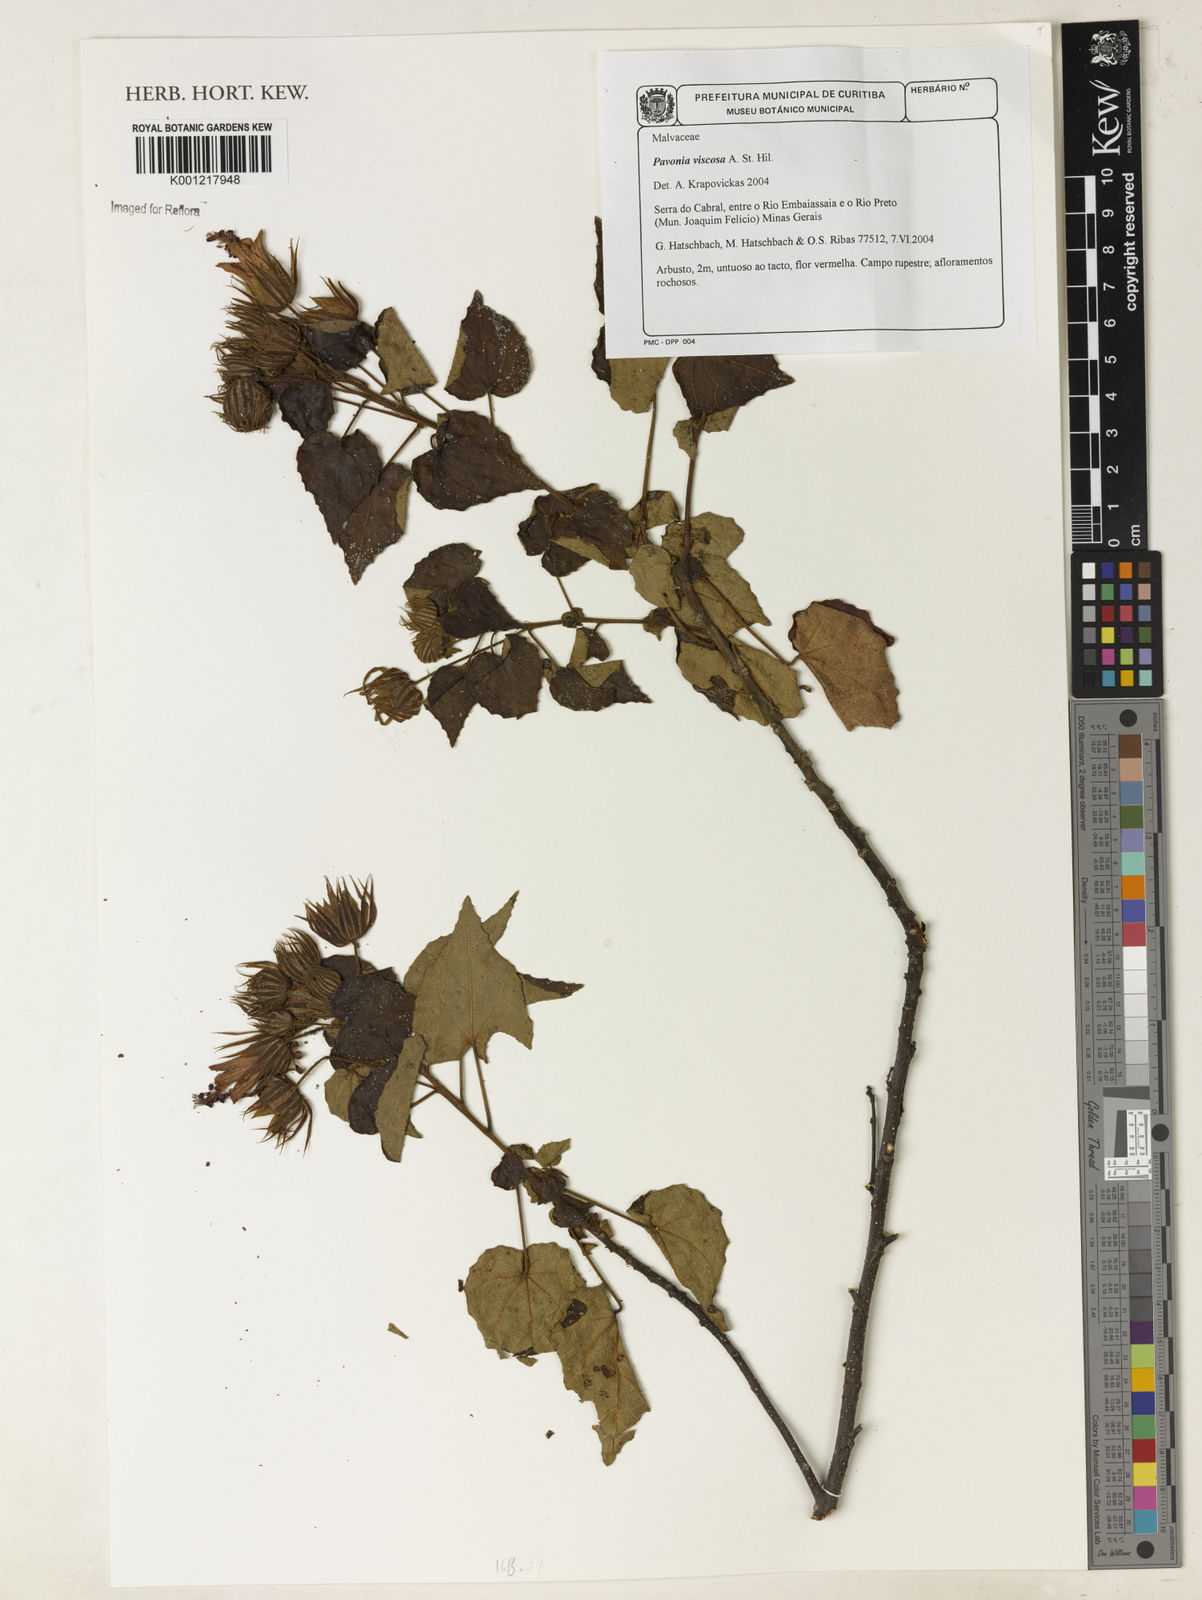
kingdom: Plantae
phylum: Tracheophyta
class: Magnoliopsida
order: Malvales
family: Malvaceae
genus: Pavonia
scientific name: Pavonia viscosa
